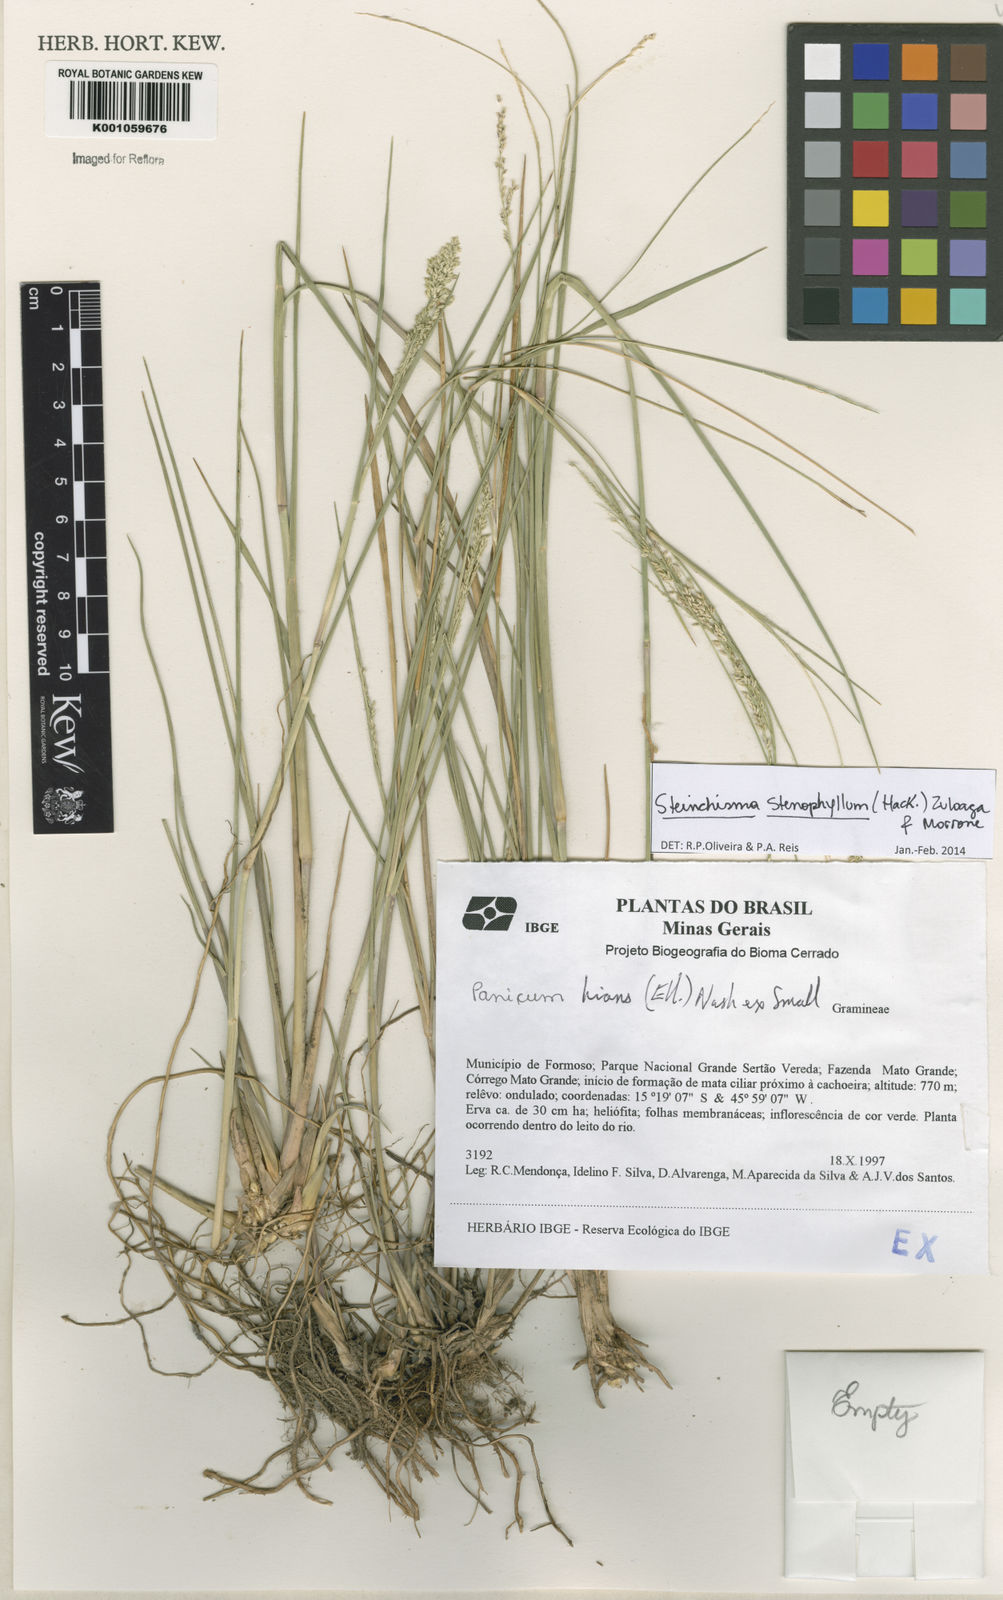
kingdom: Plantae
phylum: Tracheophyta
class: Liliopsida
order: Poales
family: Poaceae
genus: Steinchisma
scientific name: Steinchisma stenophyllum
